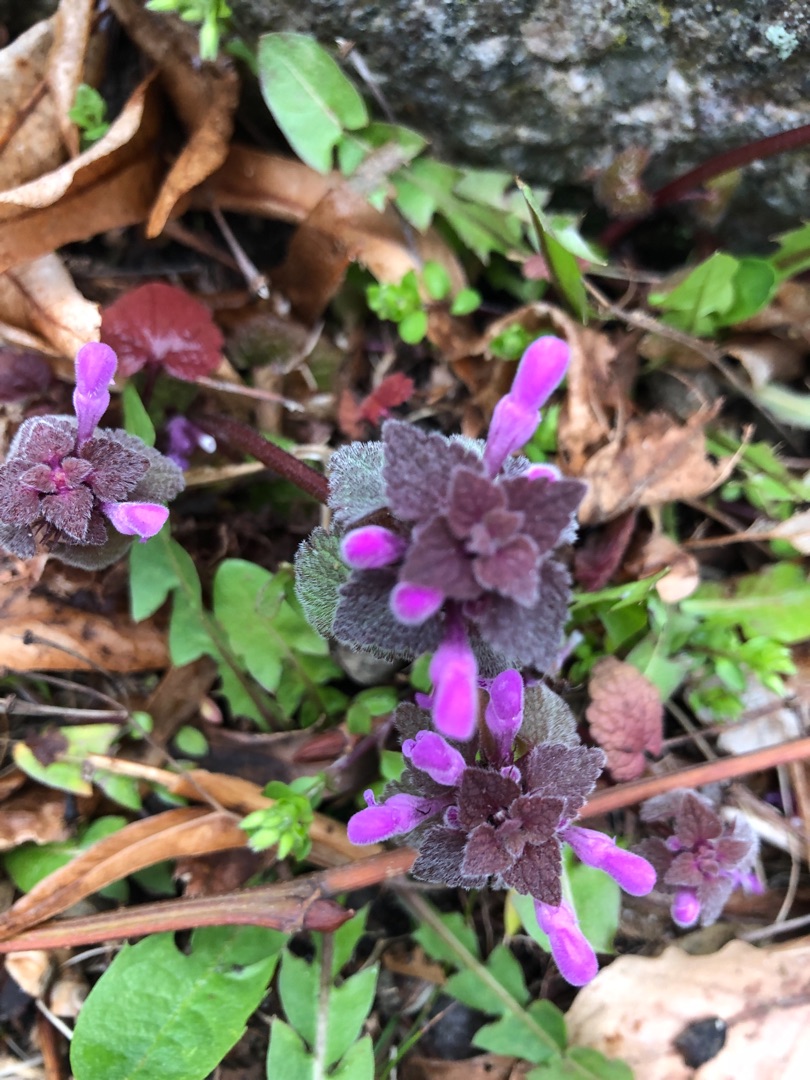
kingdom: Plantae
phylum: Tracheophyta
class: Magnoliopsida
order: Lamiales
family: Lamiaceae
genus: Lamium
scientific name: Lamium purpureum
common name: Rød tvetand
